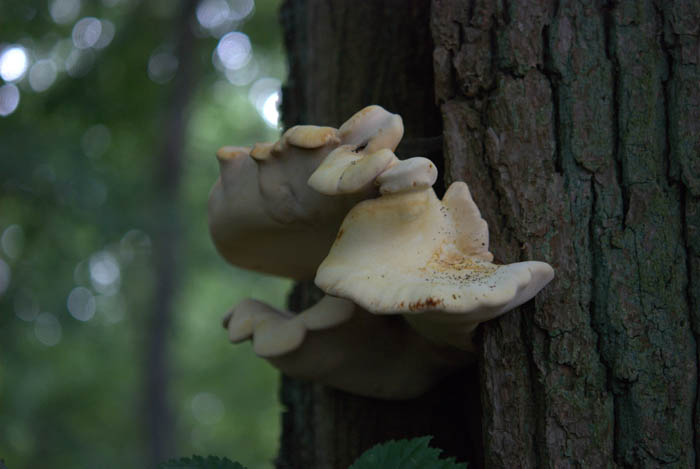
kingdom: Fungi
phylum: Basidiomycota
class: Agaricomycetes
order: Polyporales
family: Fomitopsidaceae
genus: Buglossoporus
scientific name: Buglossoporus quercinus
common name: egetunge
